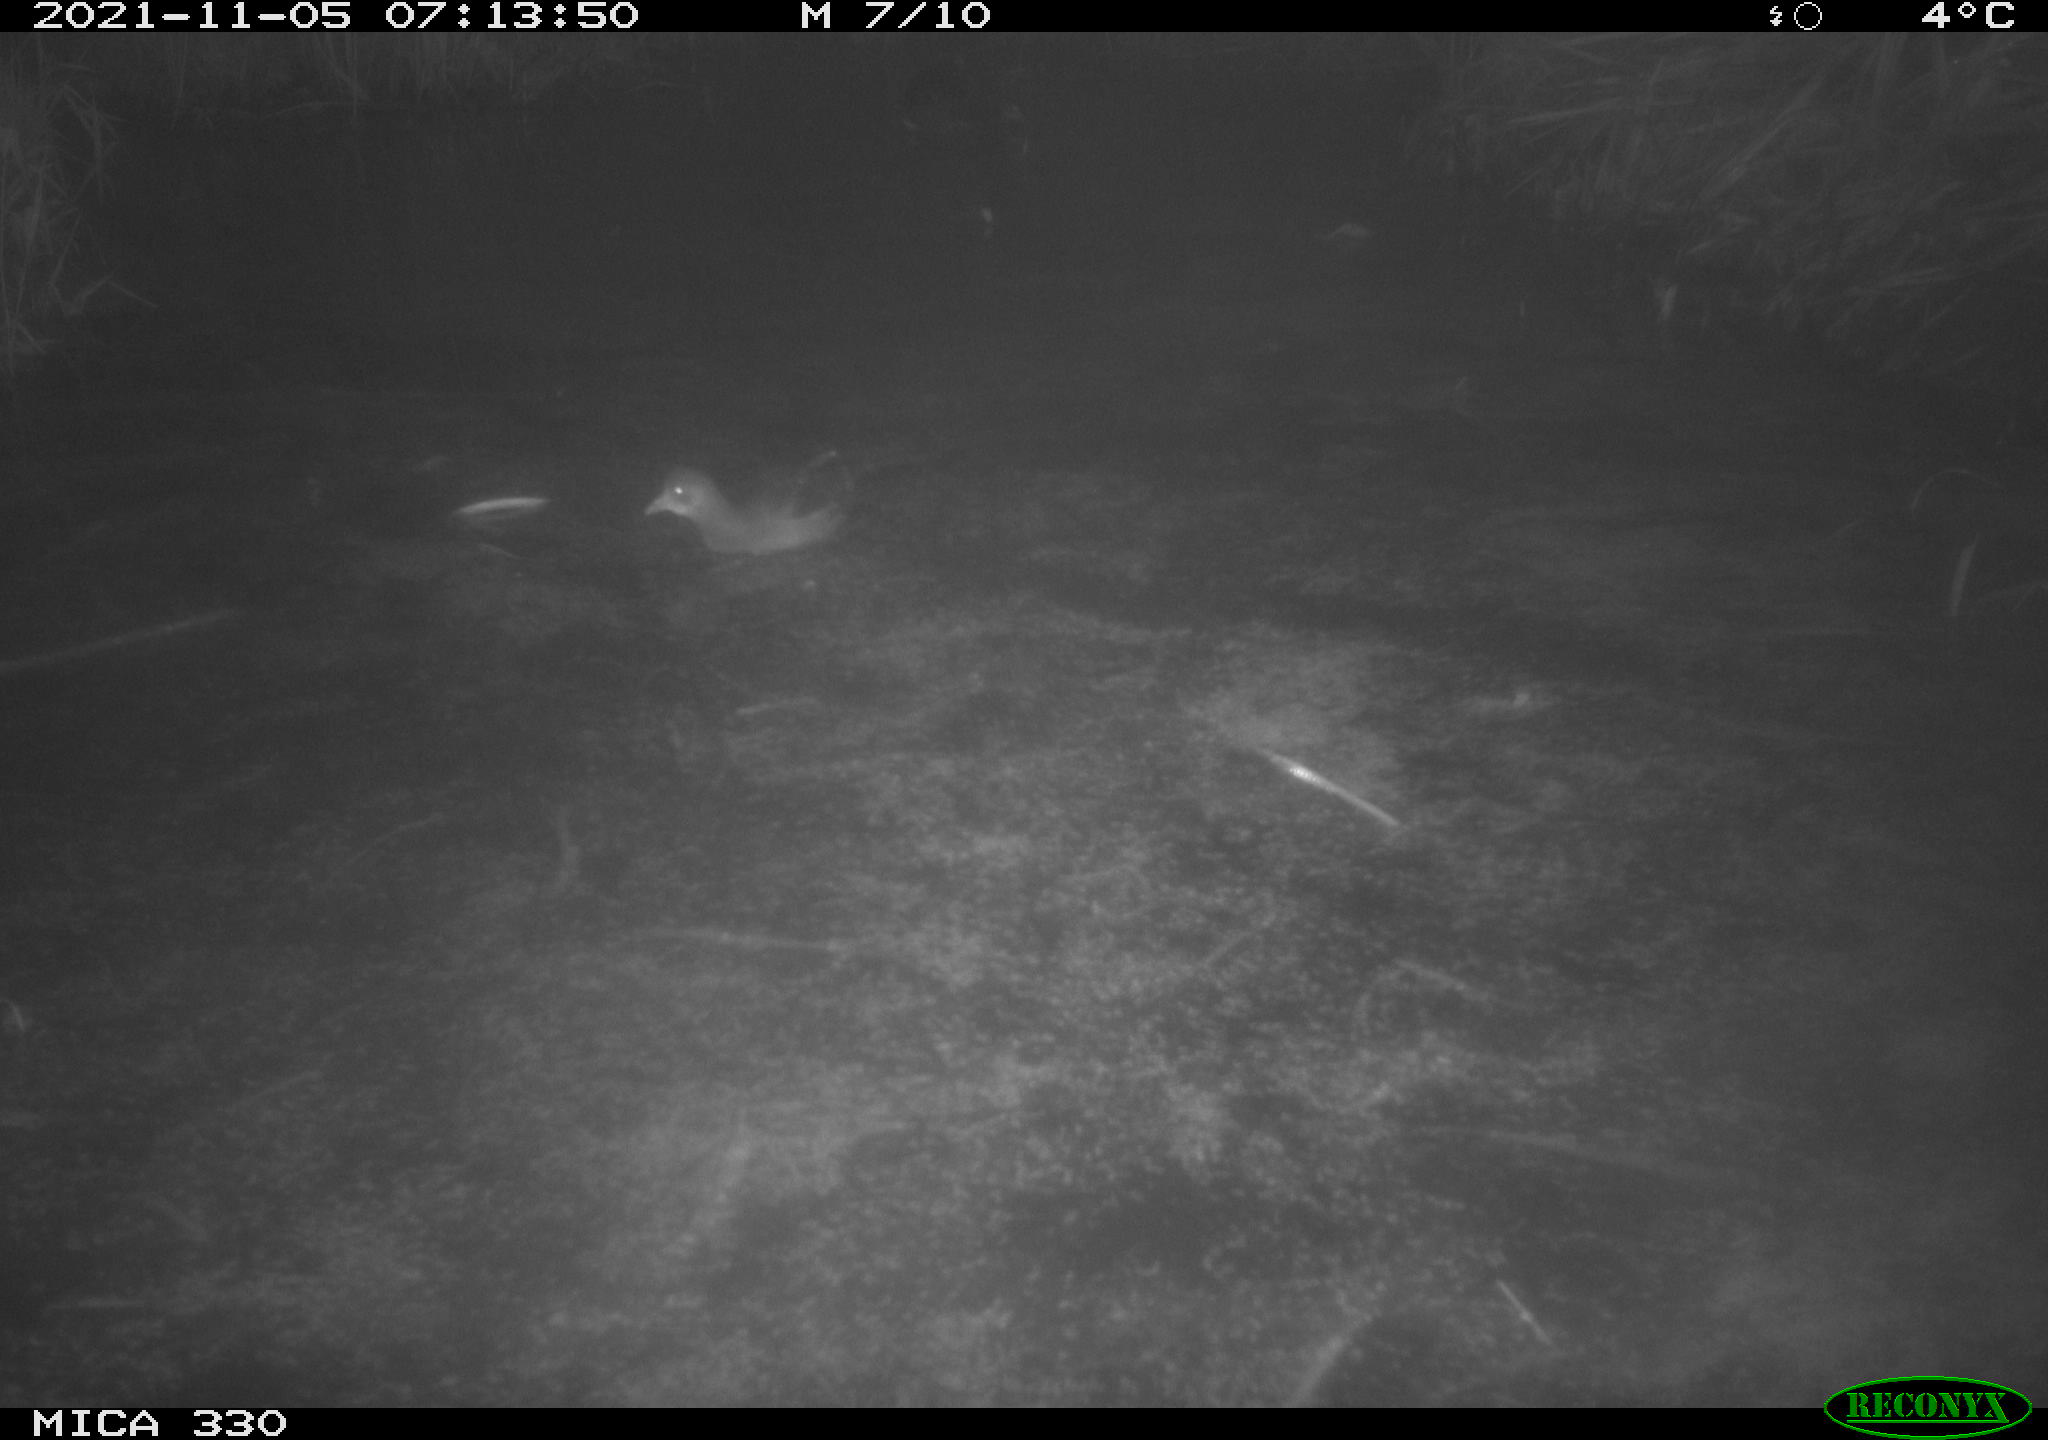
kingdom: Animalia
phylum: Chordata
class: Aves
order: Gruiformes
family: Rallidae
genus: Gallinula
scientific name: Gallinula chloropus
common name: Common moorhen
